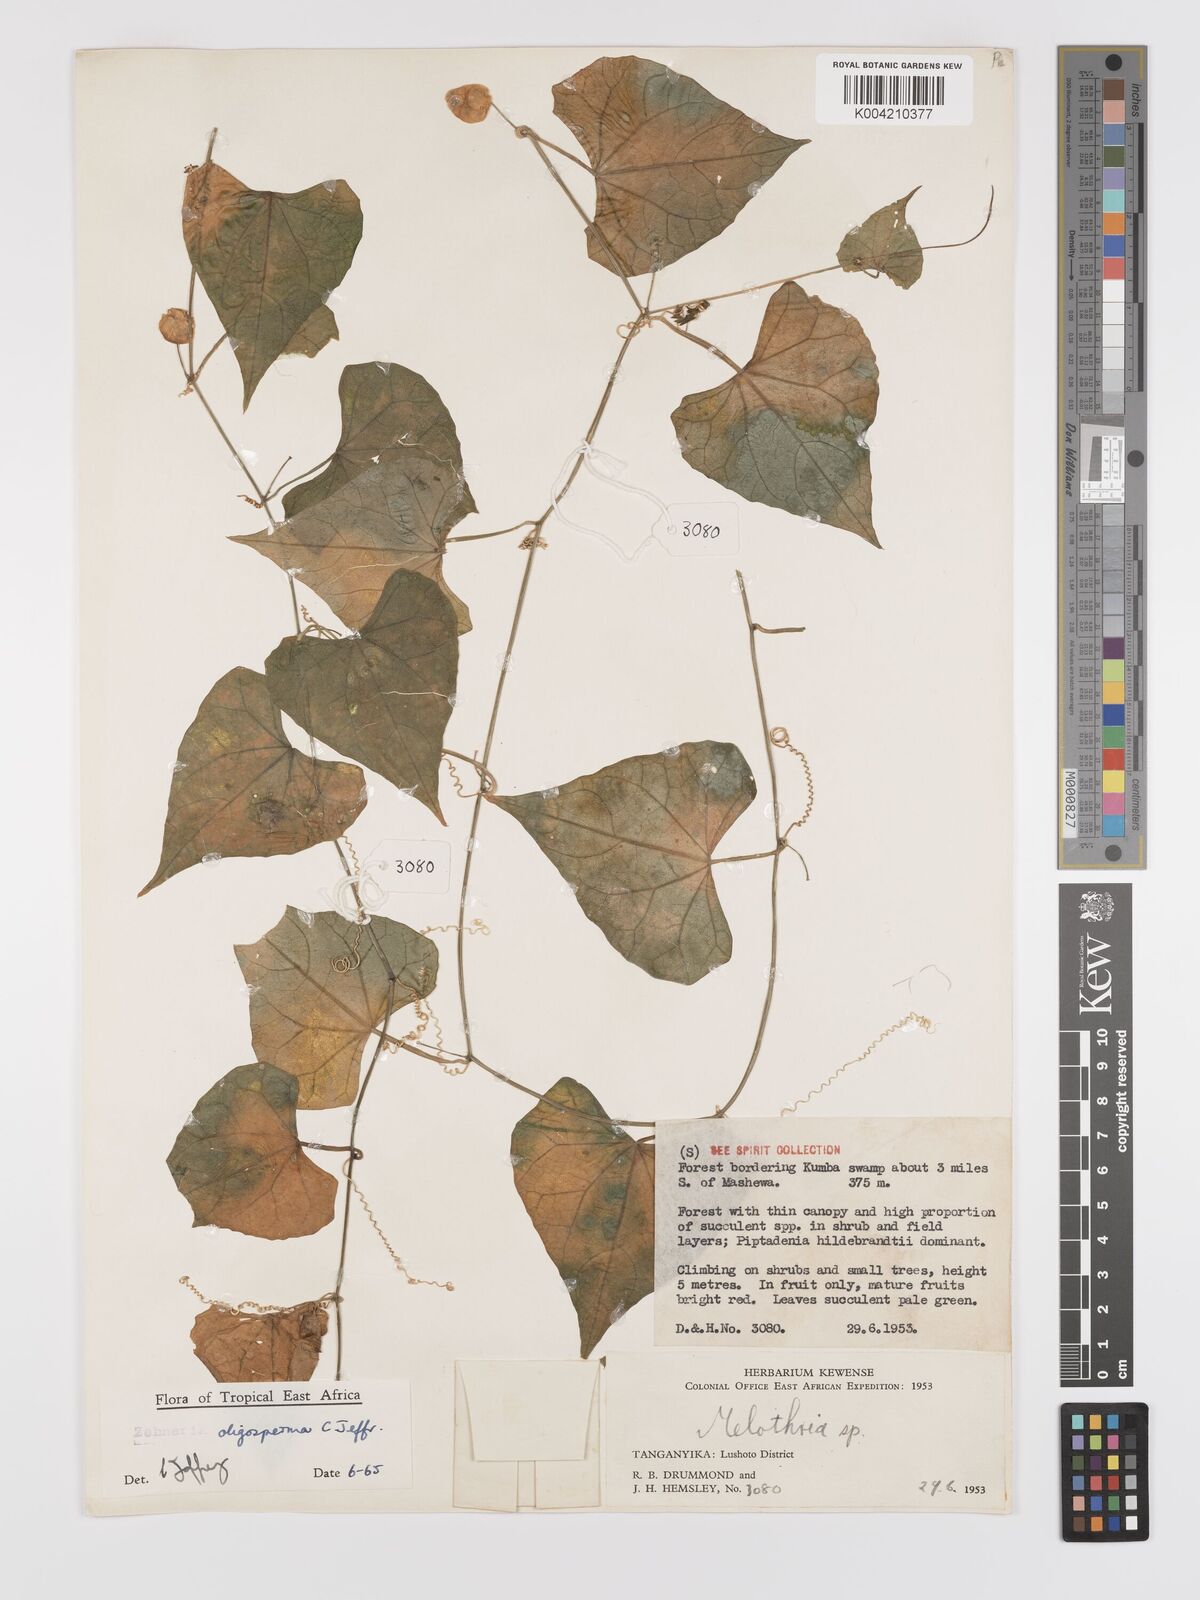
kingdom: Plantae
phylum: Tracheophyta
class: Magnoliopsida
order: Cucurbitales
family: Cucurbitaceae
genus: Zehneria
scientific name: Zehneria oligosperma
